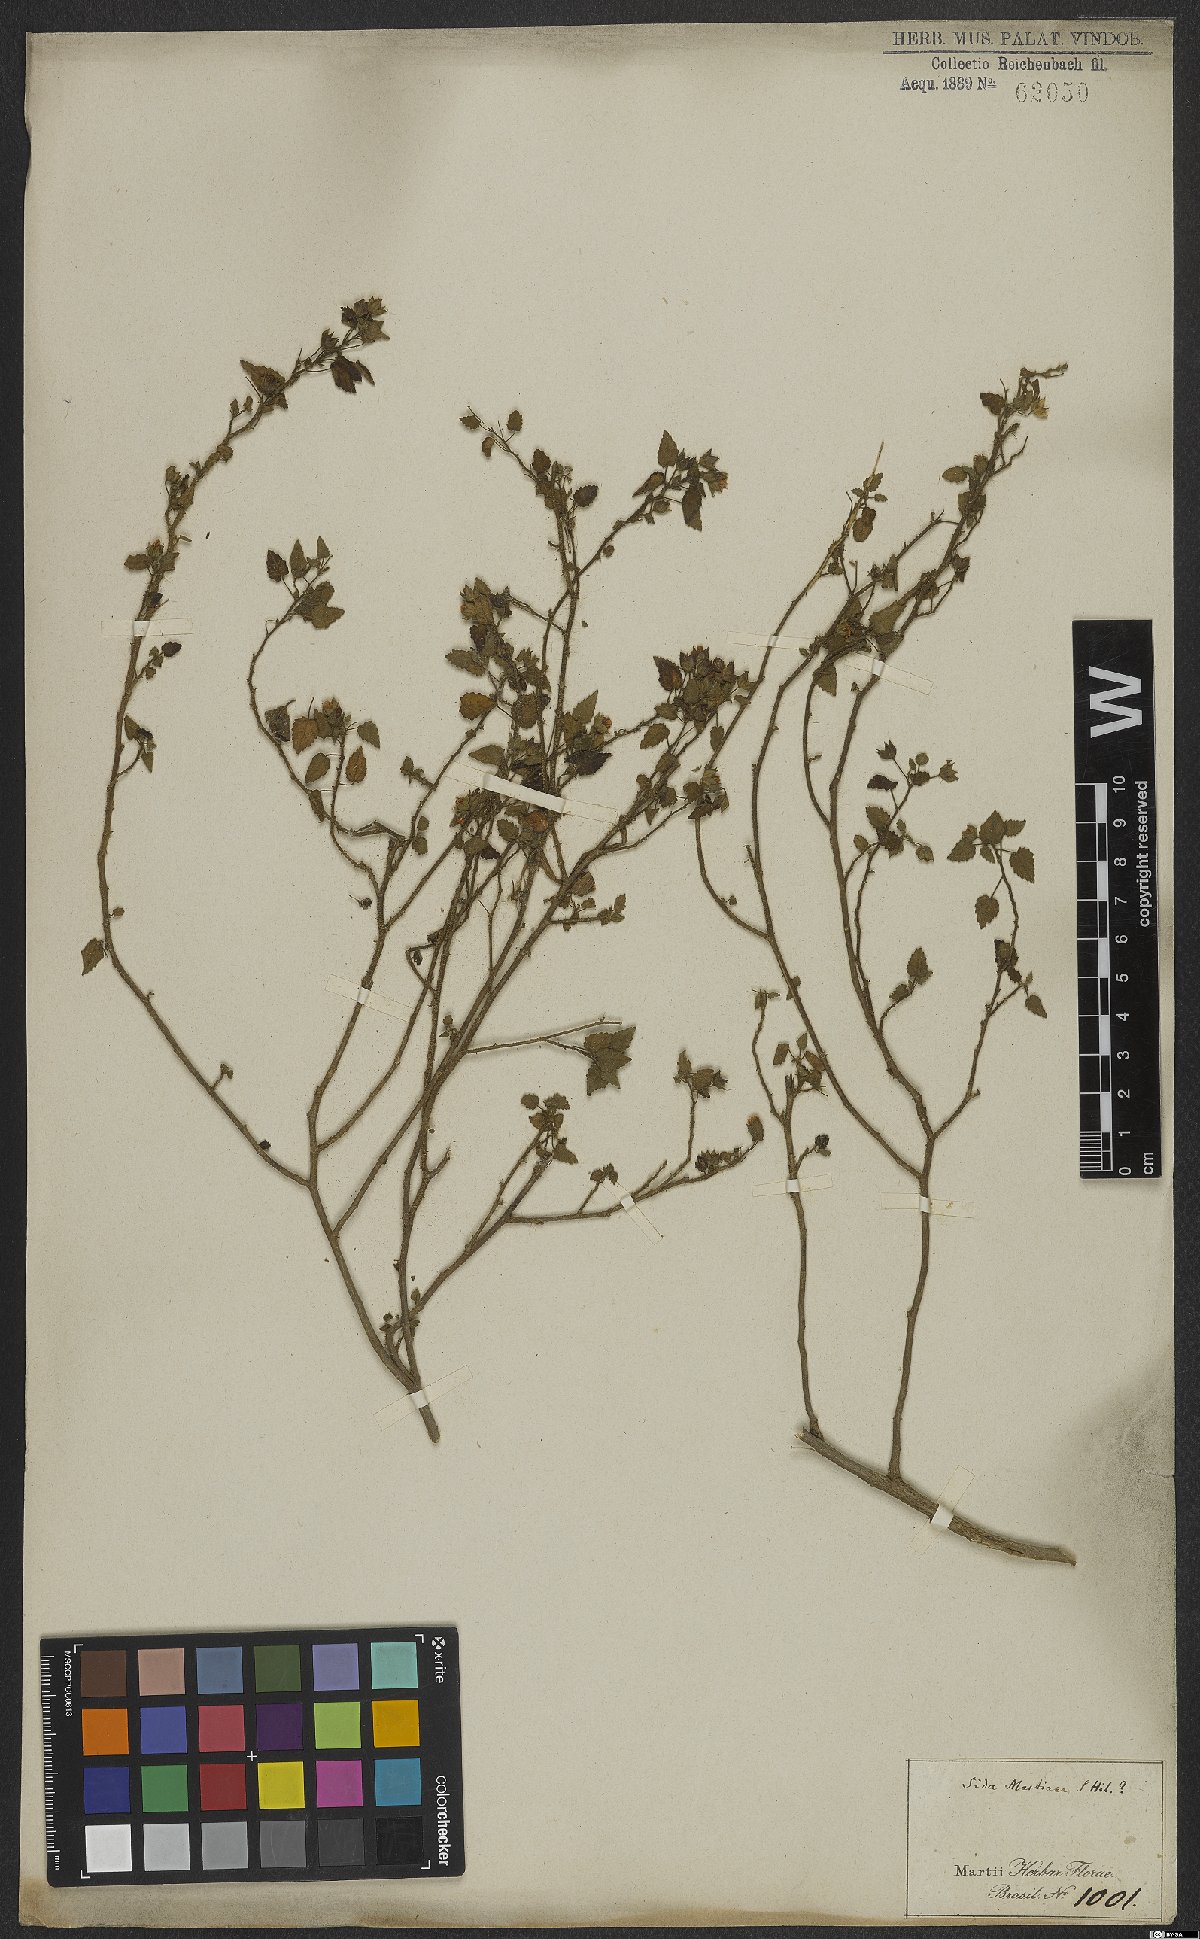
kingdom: Plantae
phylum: Tracheophyta
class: Magnoliopsida
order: Malvales
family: Malvaceae
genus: Sida
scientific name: Sida aurantiaca
